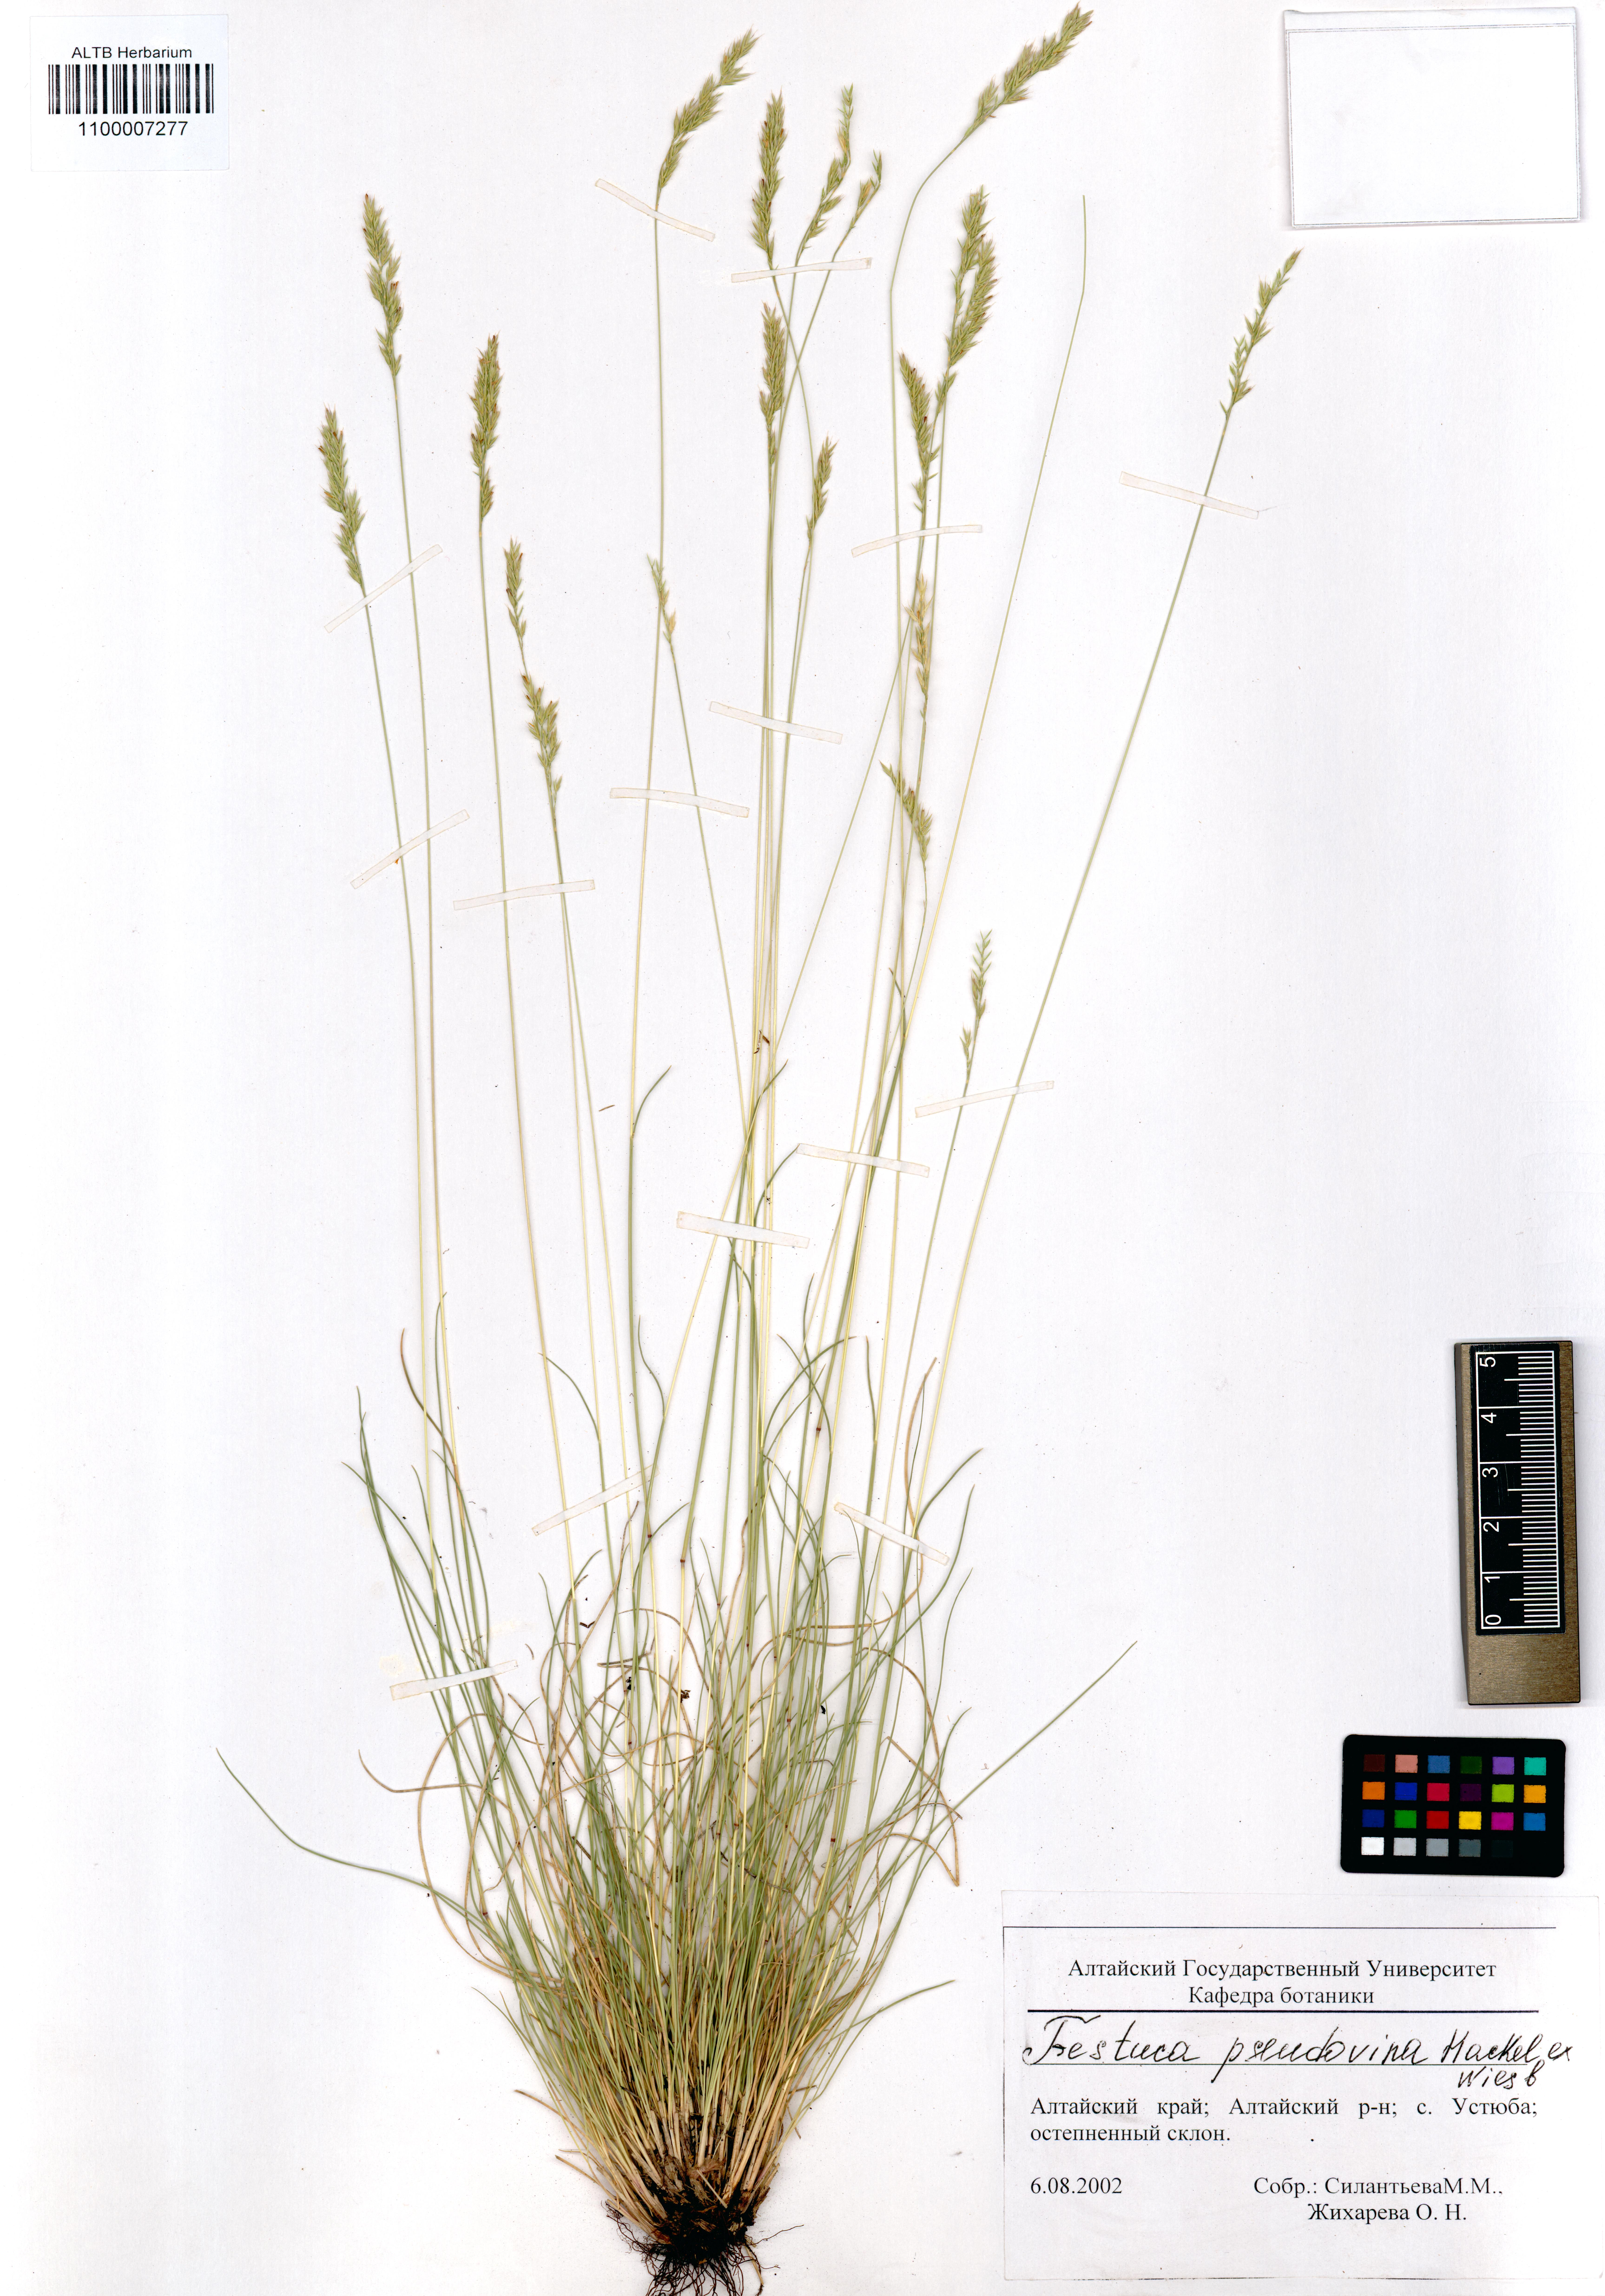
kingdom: Plantae
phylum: Tracheophyta
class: Liliopsida
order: Poales
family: Poaceae
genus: Festuca
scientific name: Festuca pulchra
